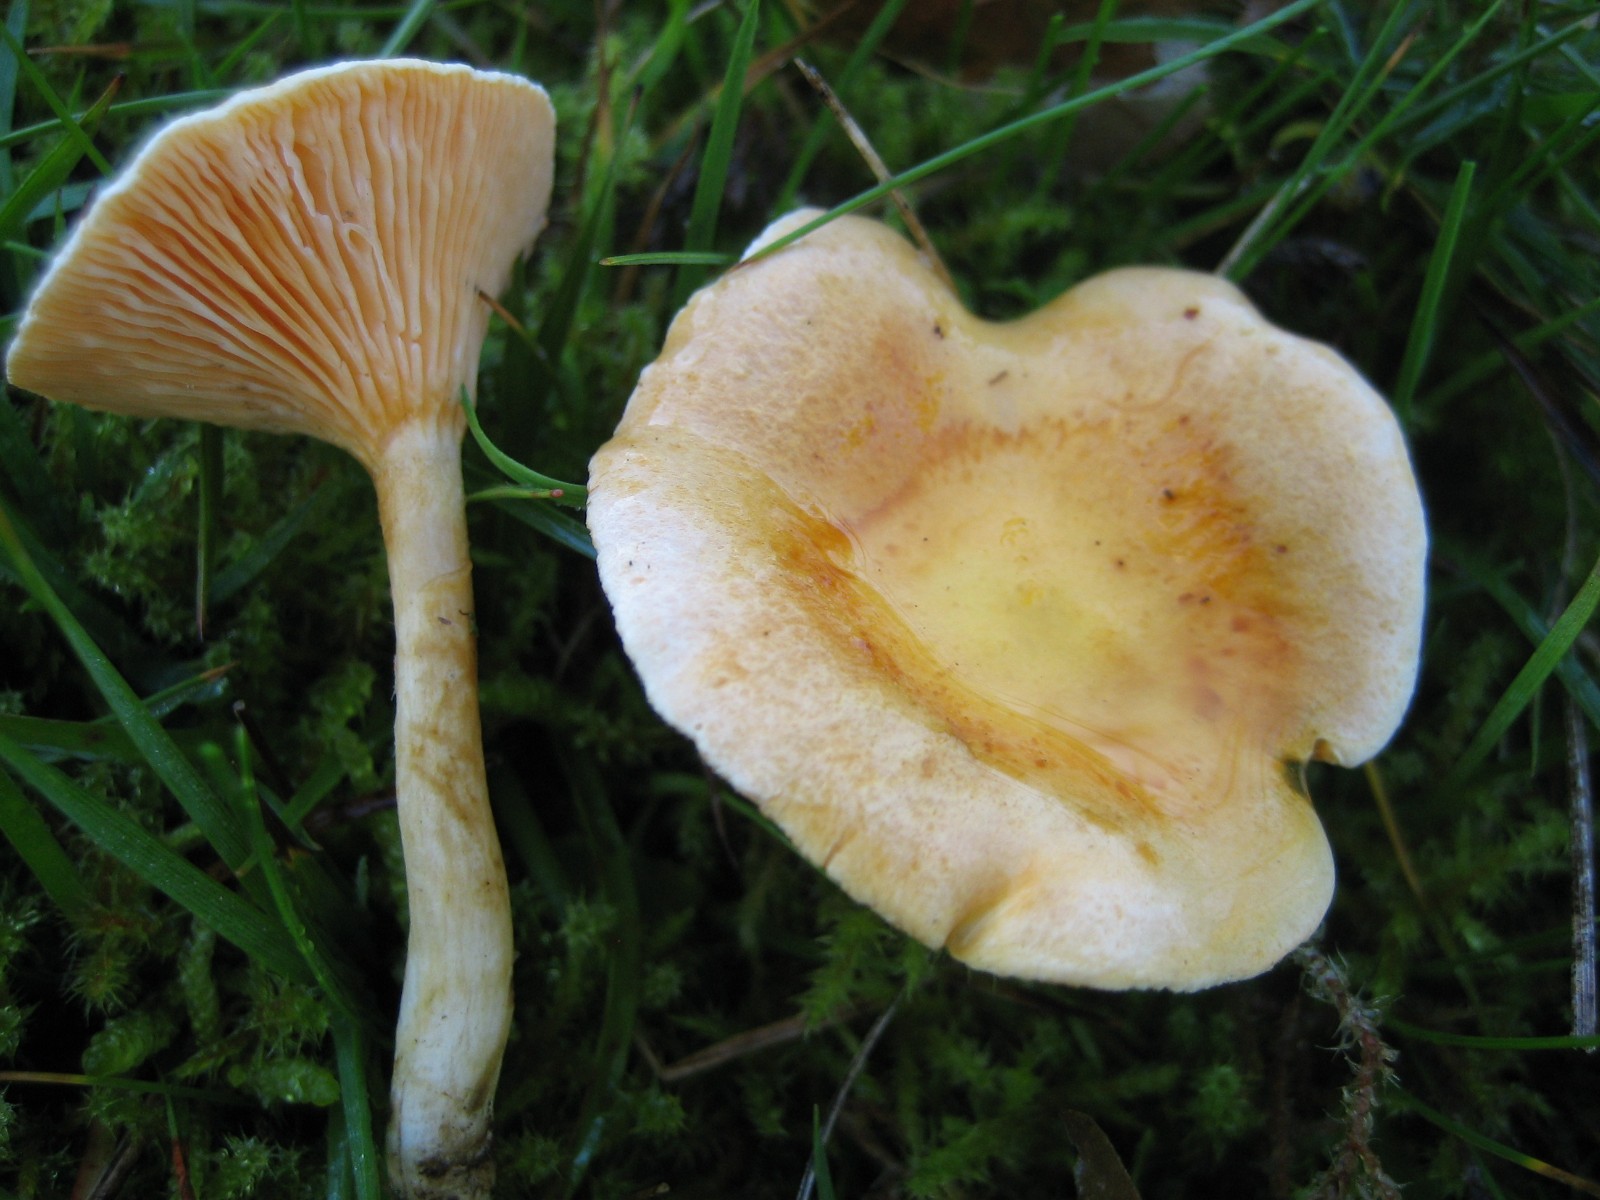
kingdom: Fungi
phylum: Basidiomycota
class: Agaricomycetes
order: Boletales
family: Hygrophoropsidaceae
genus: Hygrophoropsis
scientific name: Hygrophoropsis aurantiaca
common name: almindelig orangekantarel
